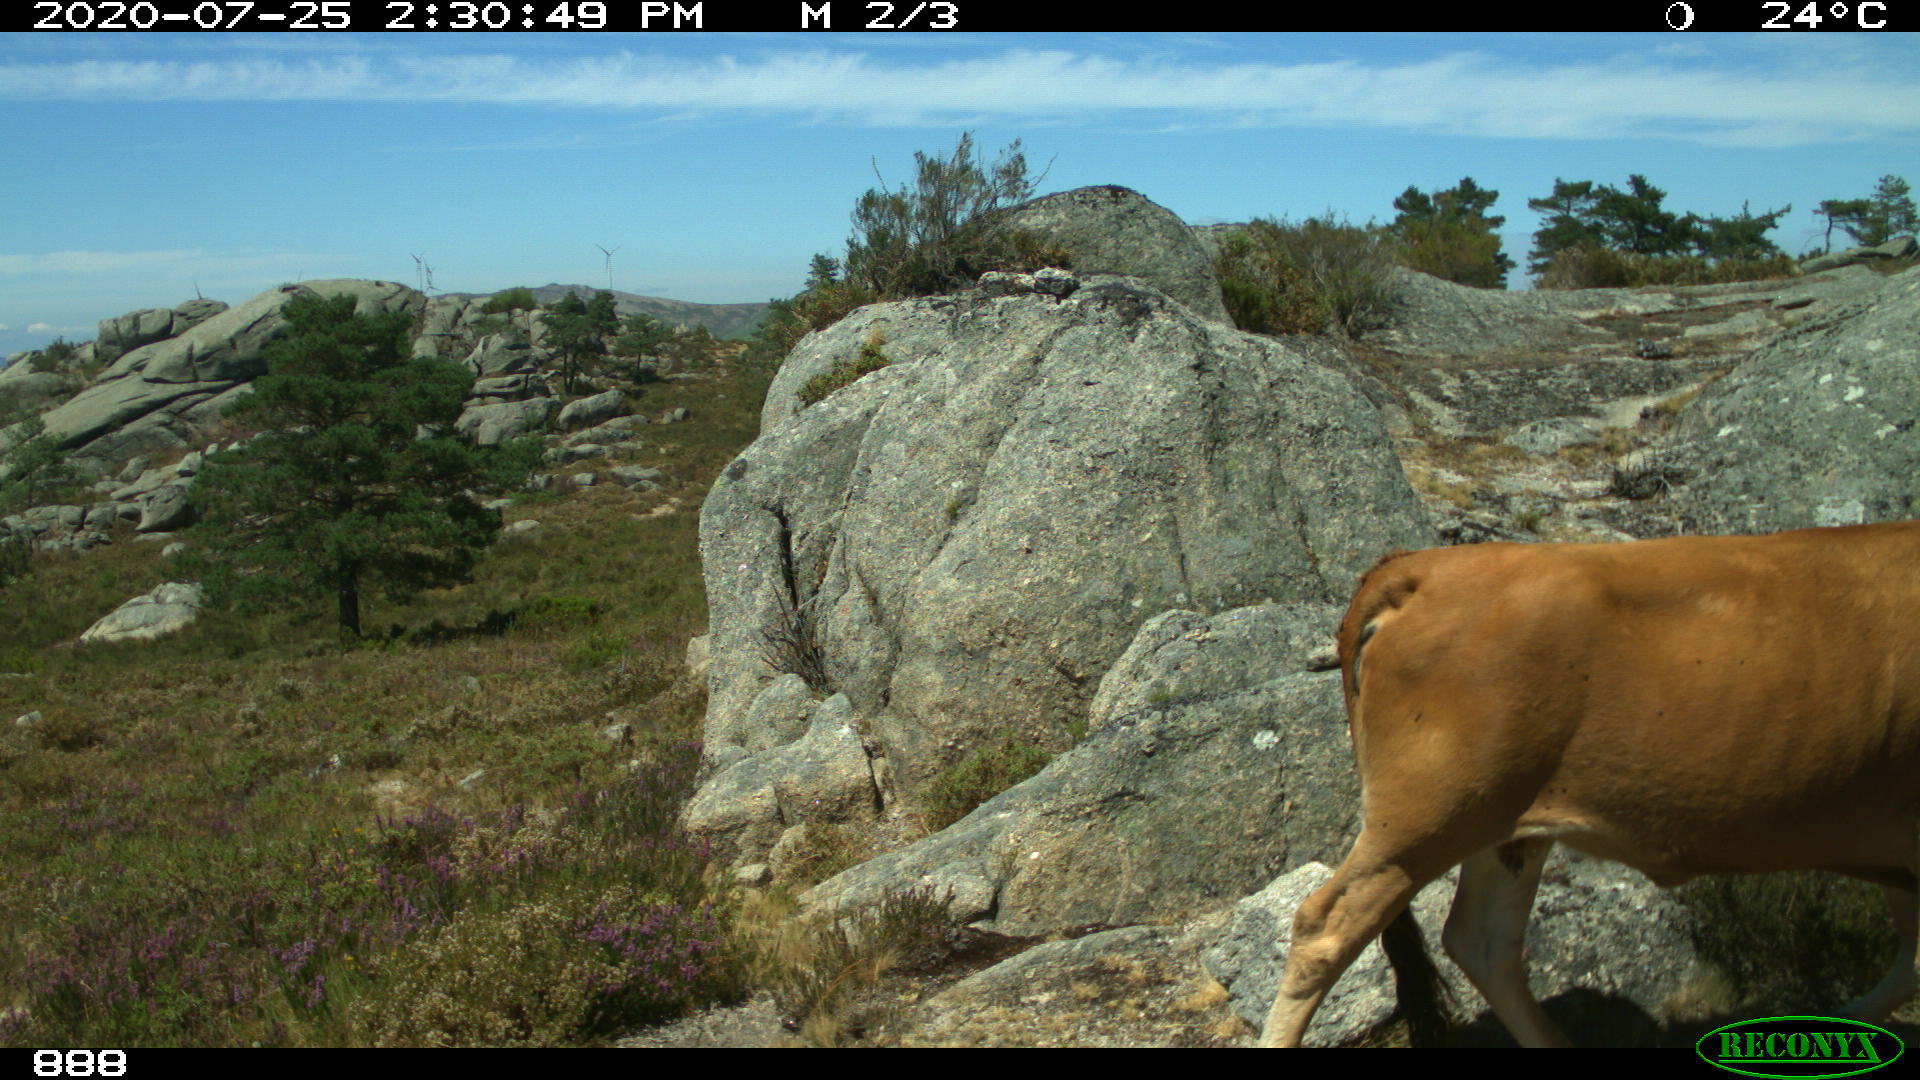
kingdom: Animalia
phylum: Chordata
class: Mammalia
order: Artiodactyla
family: Bovidae
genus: Bos
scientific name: Bos taurus
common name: Domesticated cattle
